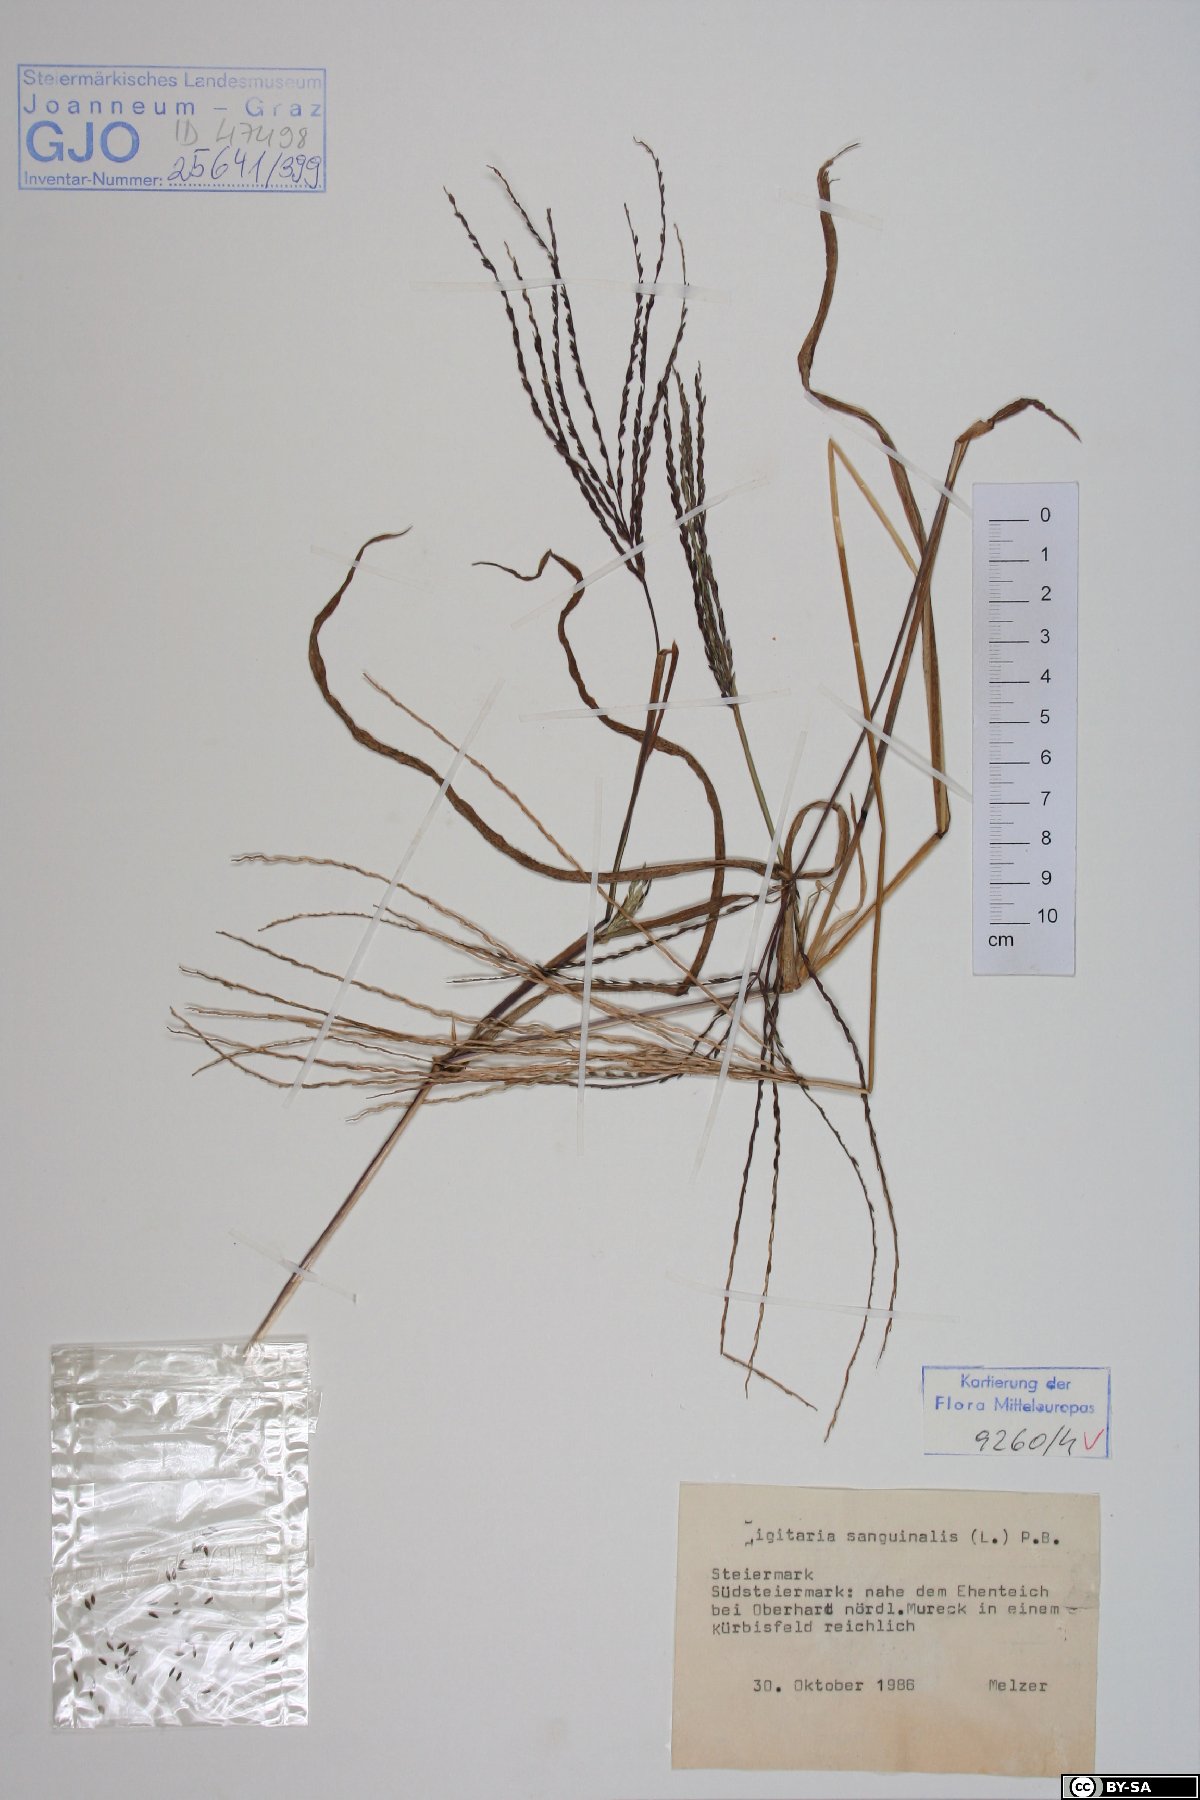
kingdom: Plantae
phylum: Tracheophyta
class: Liliopsida
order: Poales
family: Poaceae
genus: Digitaria
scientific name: Digitaria sanguinalis
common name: Hairy crabgrass
